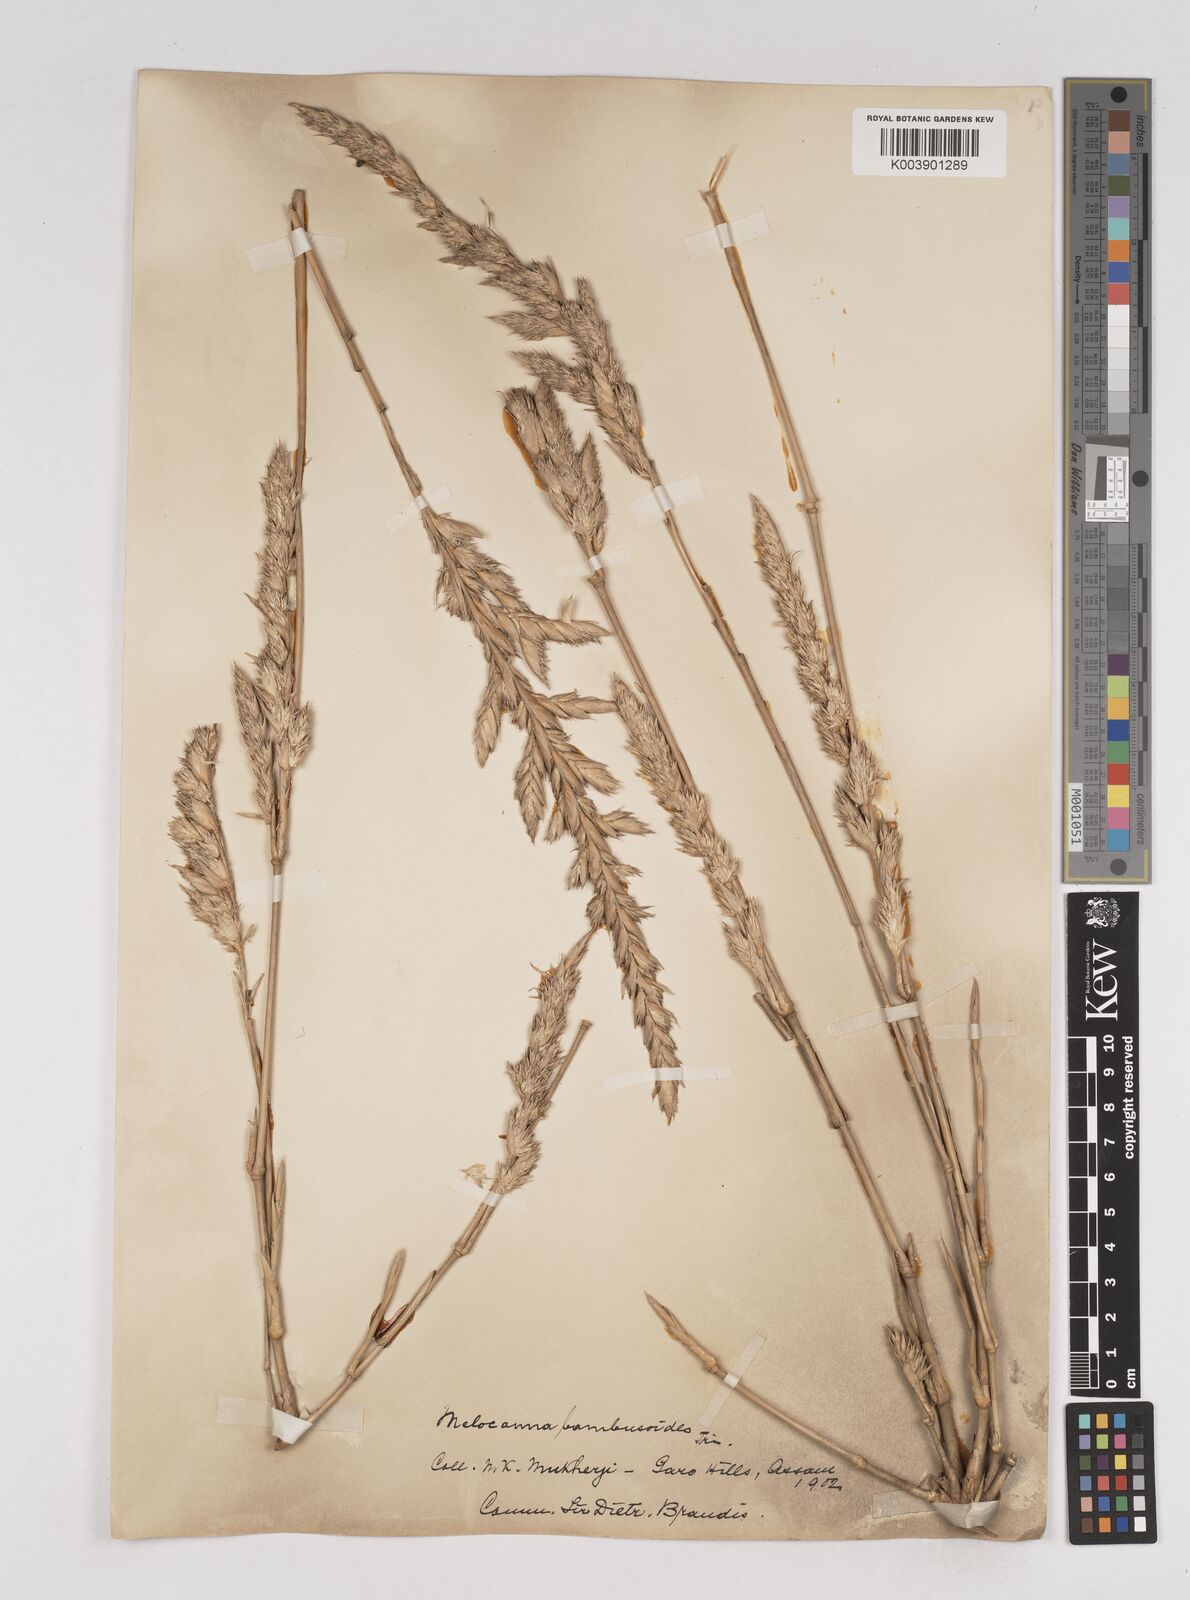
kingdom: Plantae
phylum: Tracheophyta
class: Liliopsida
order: Poales
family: Poaceae
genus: Melocanna
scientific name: Melocanna baccifera
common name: Berry bamboo
